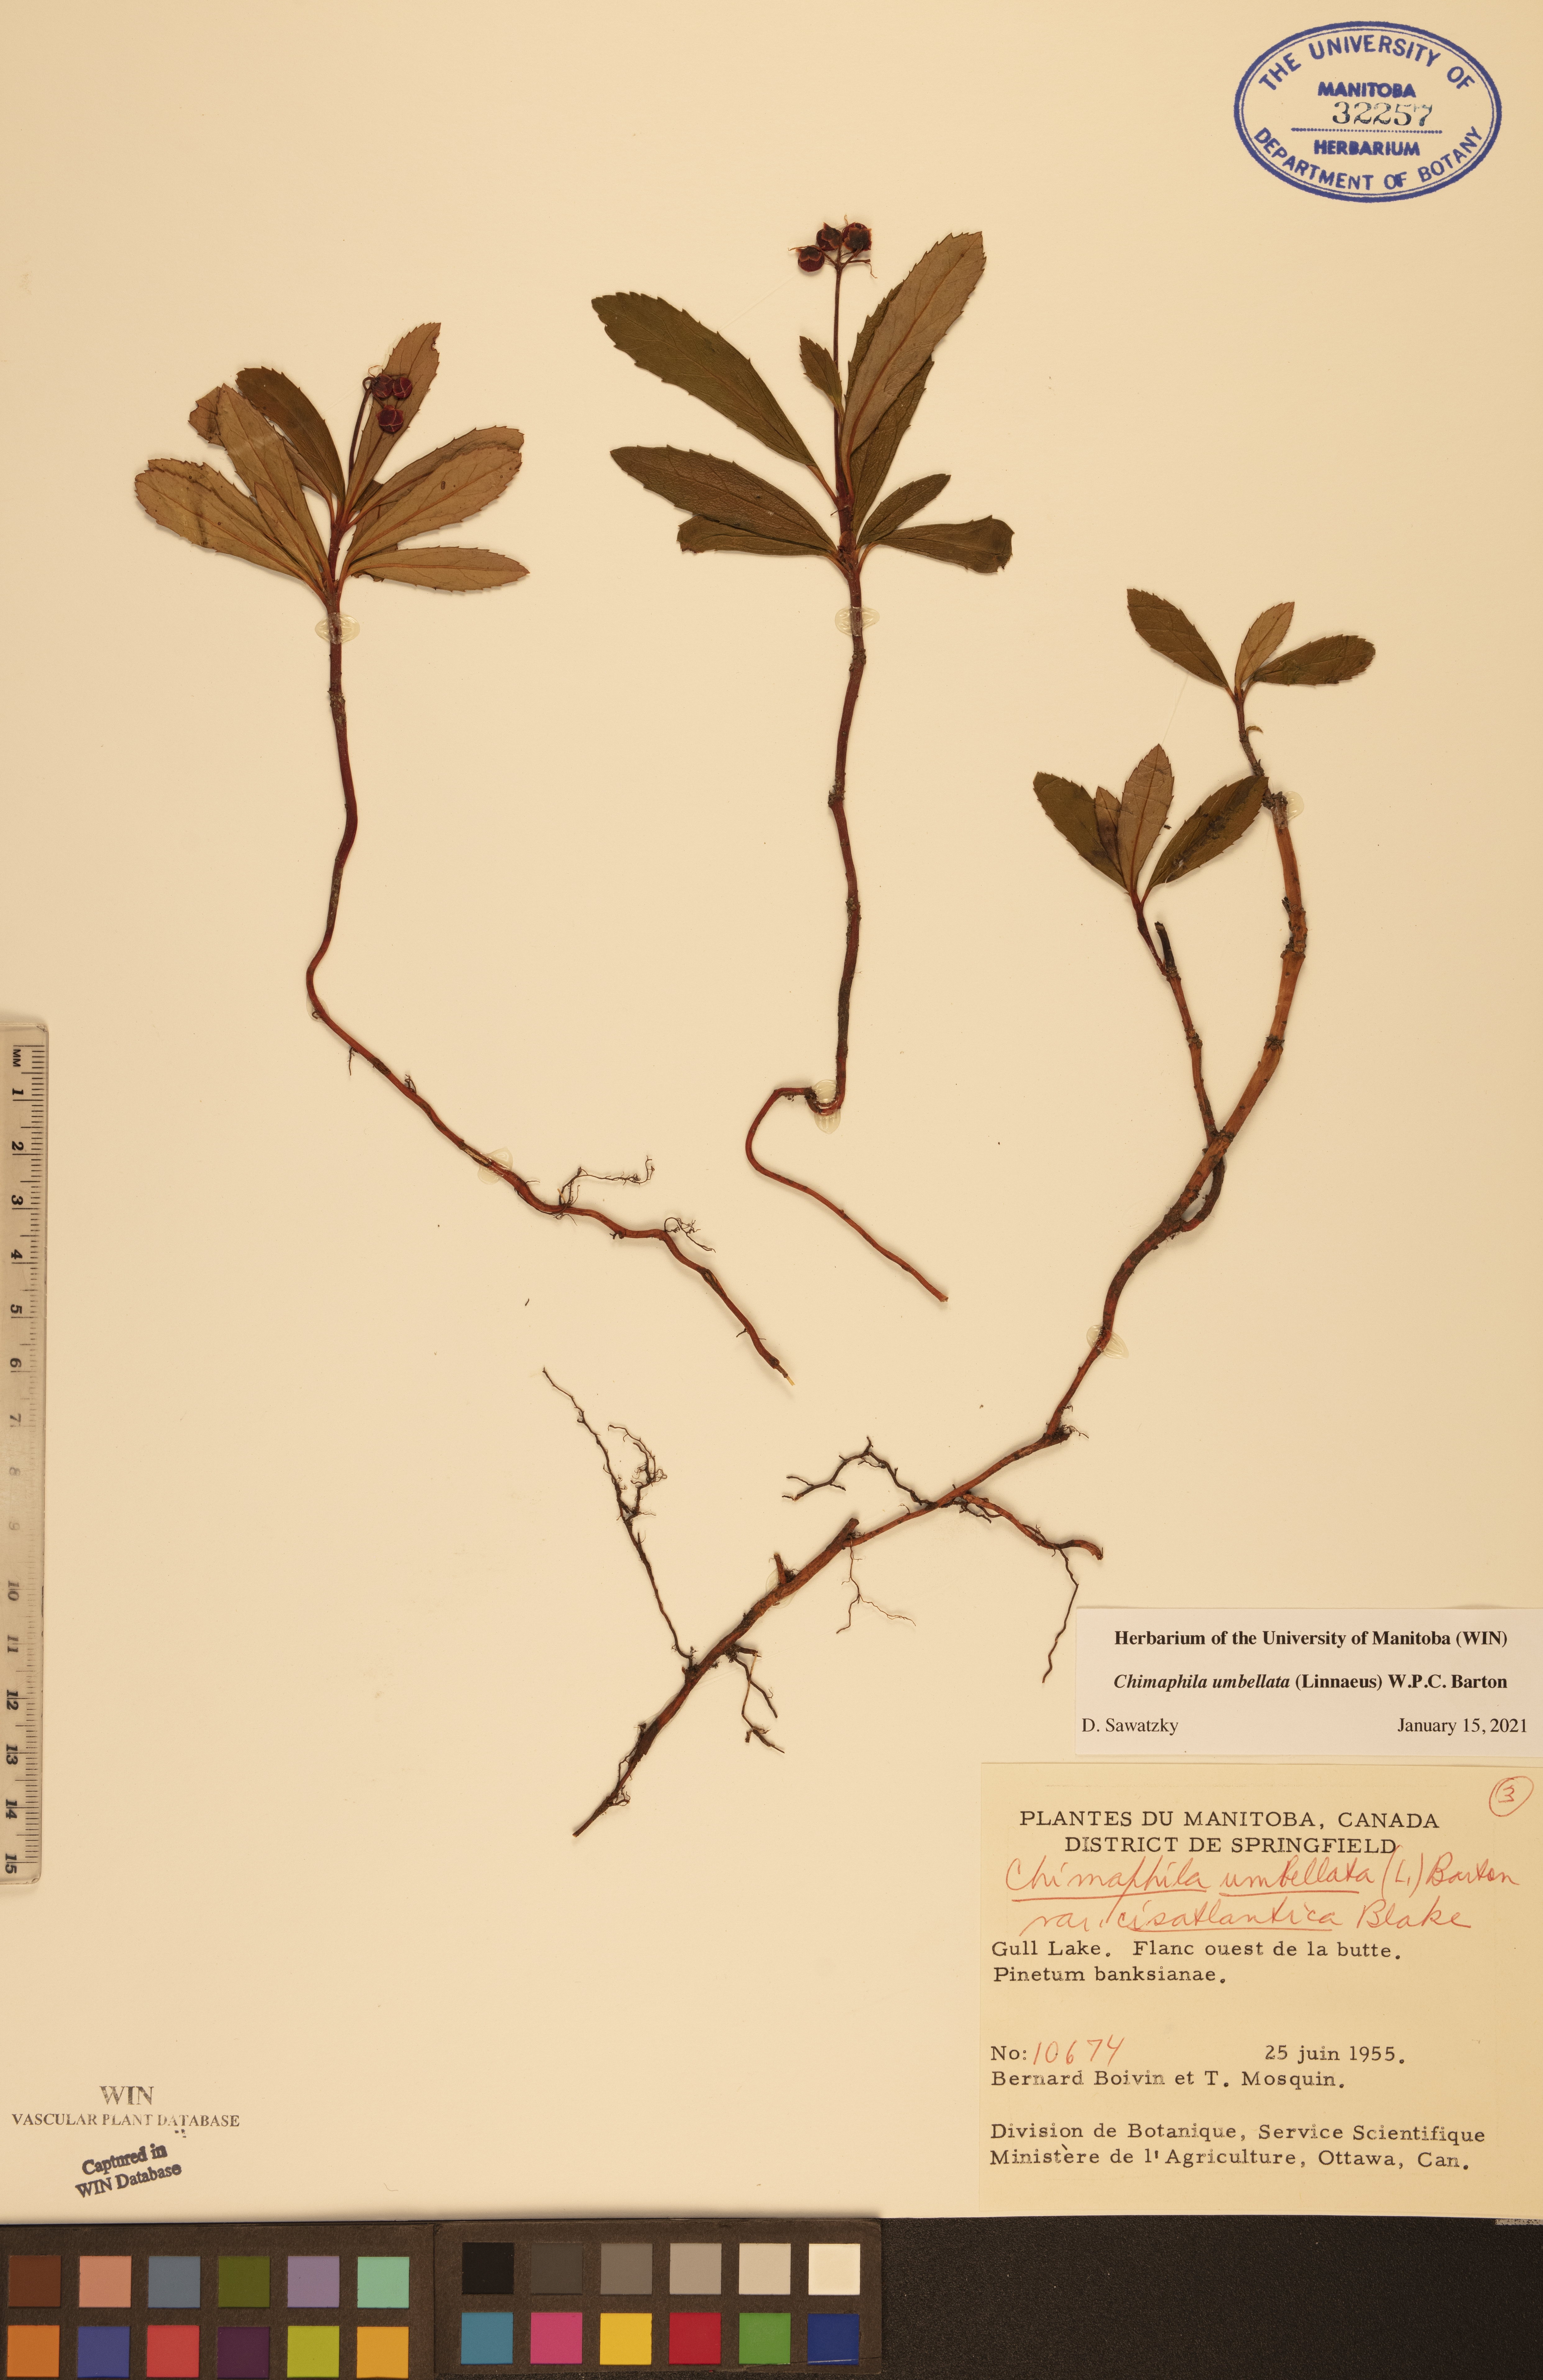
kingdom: Plantae
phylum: Tracheophyta
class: Magnoliopsida
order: Ericales
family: Ericaceae
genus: Chimaphila
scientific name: Chimaphila umbellata
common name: Pipsissewa
